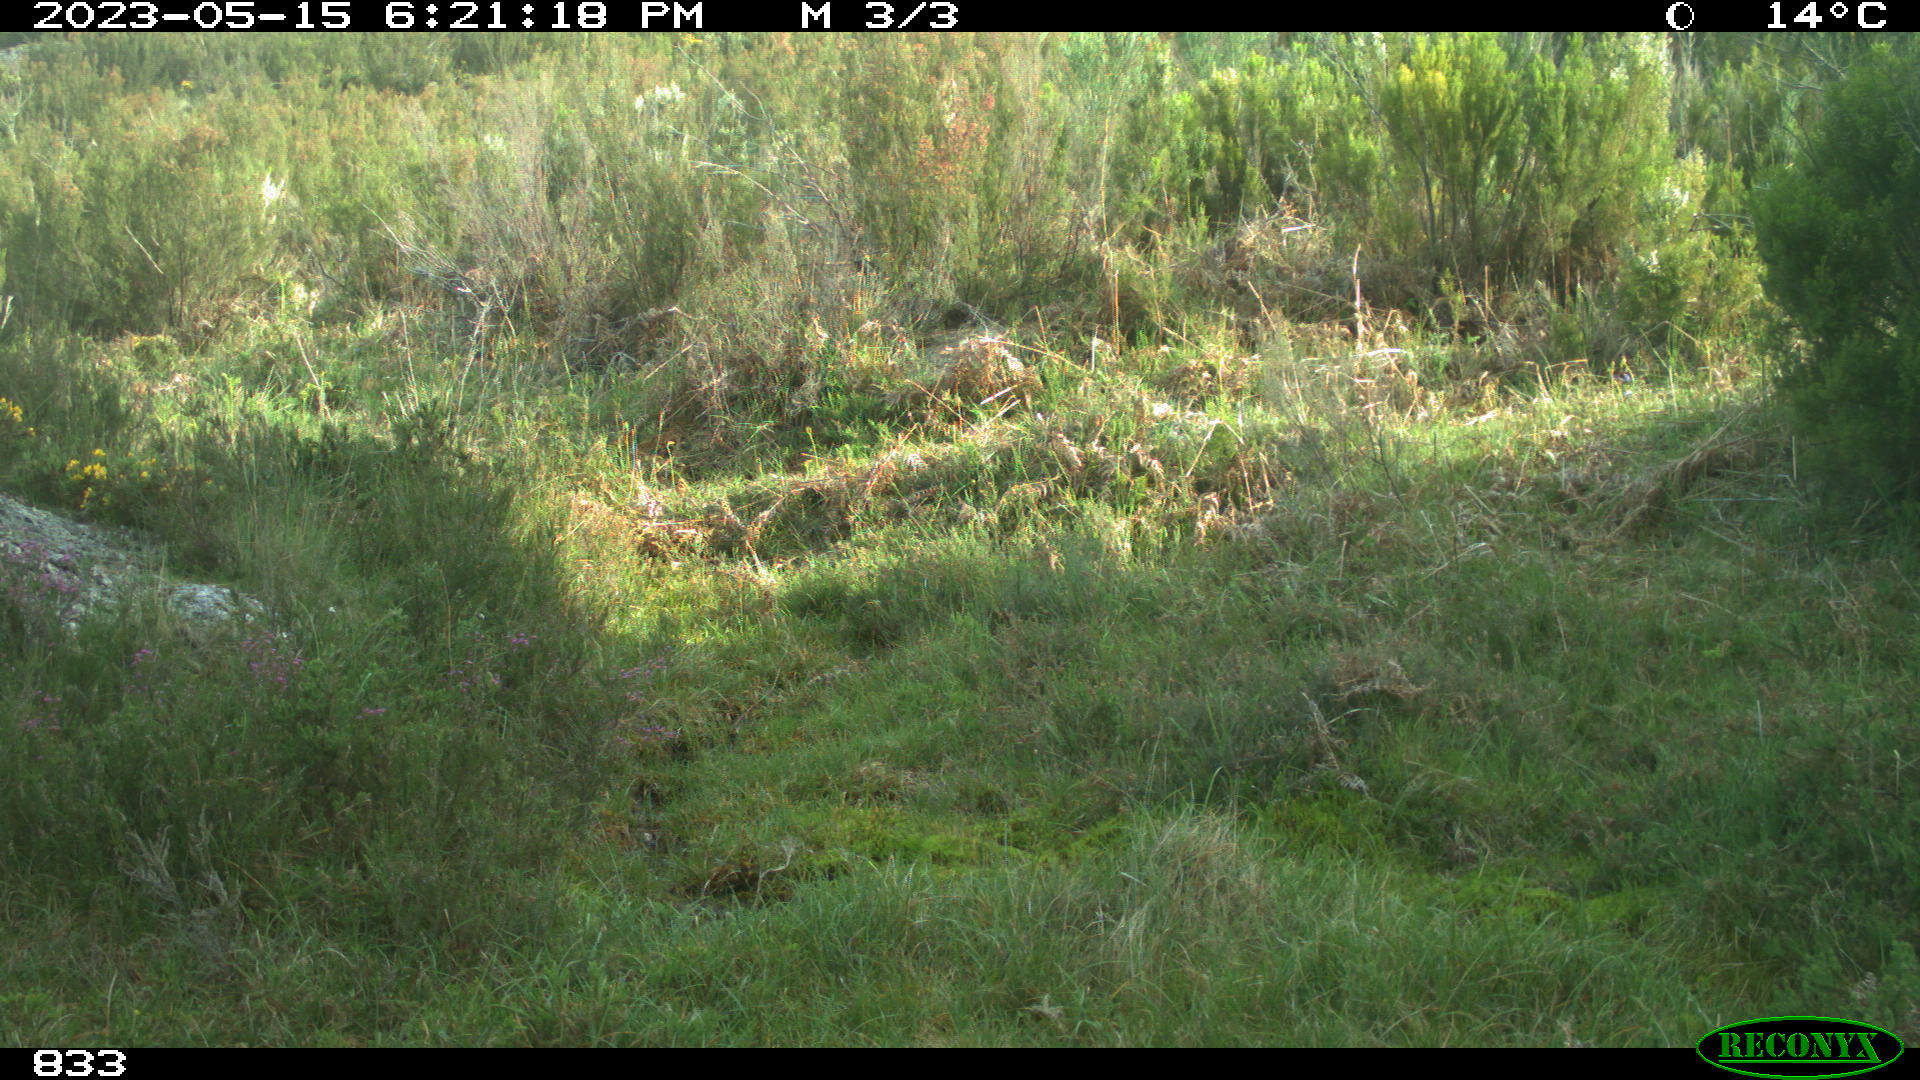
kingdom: Animalia
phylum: Chordata
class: Mammalia
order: Perissodactyla
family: Equidae
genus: Equus
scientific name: Equus caballus
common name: Horse
